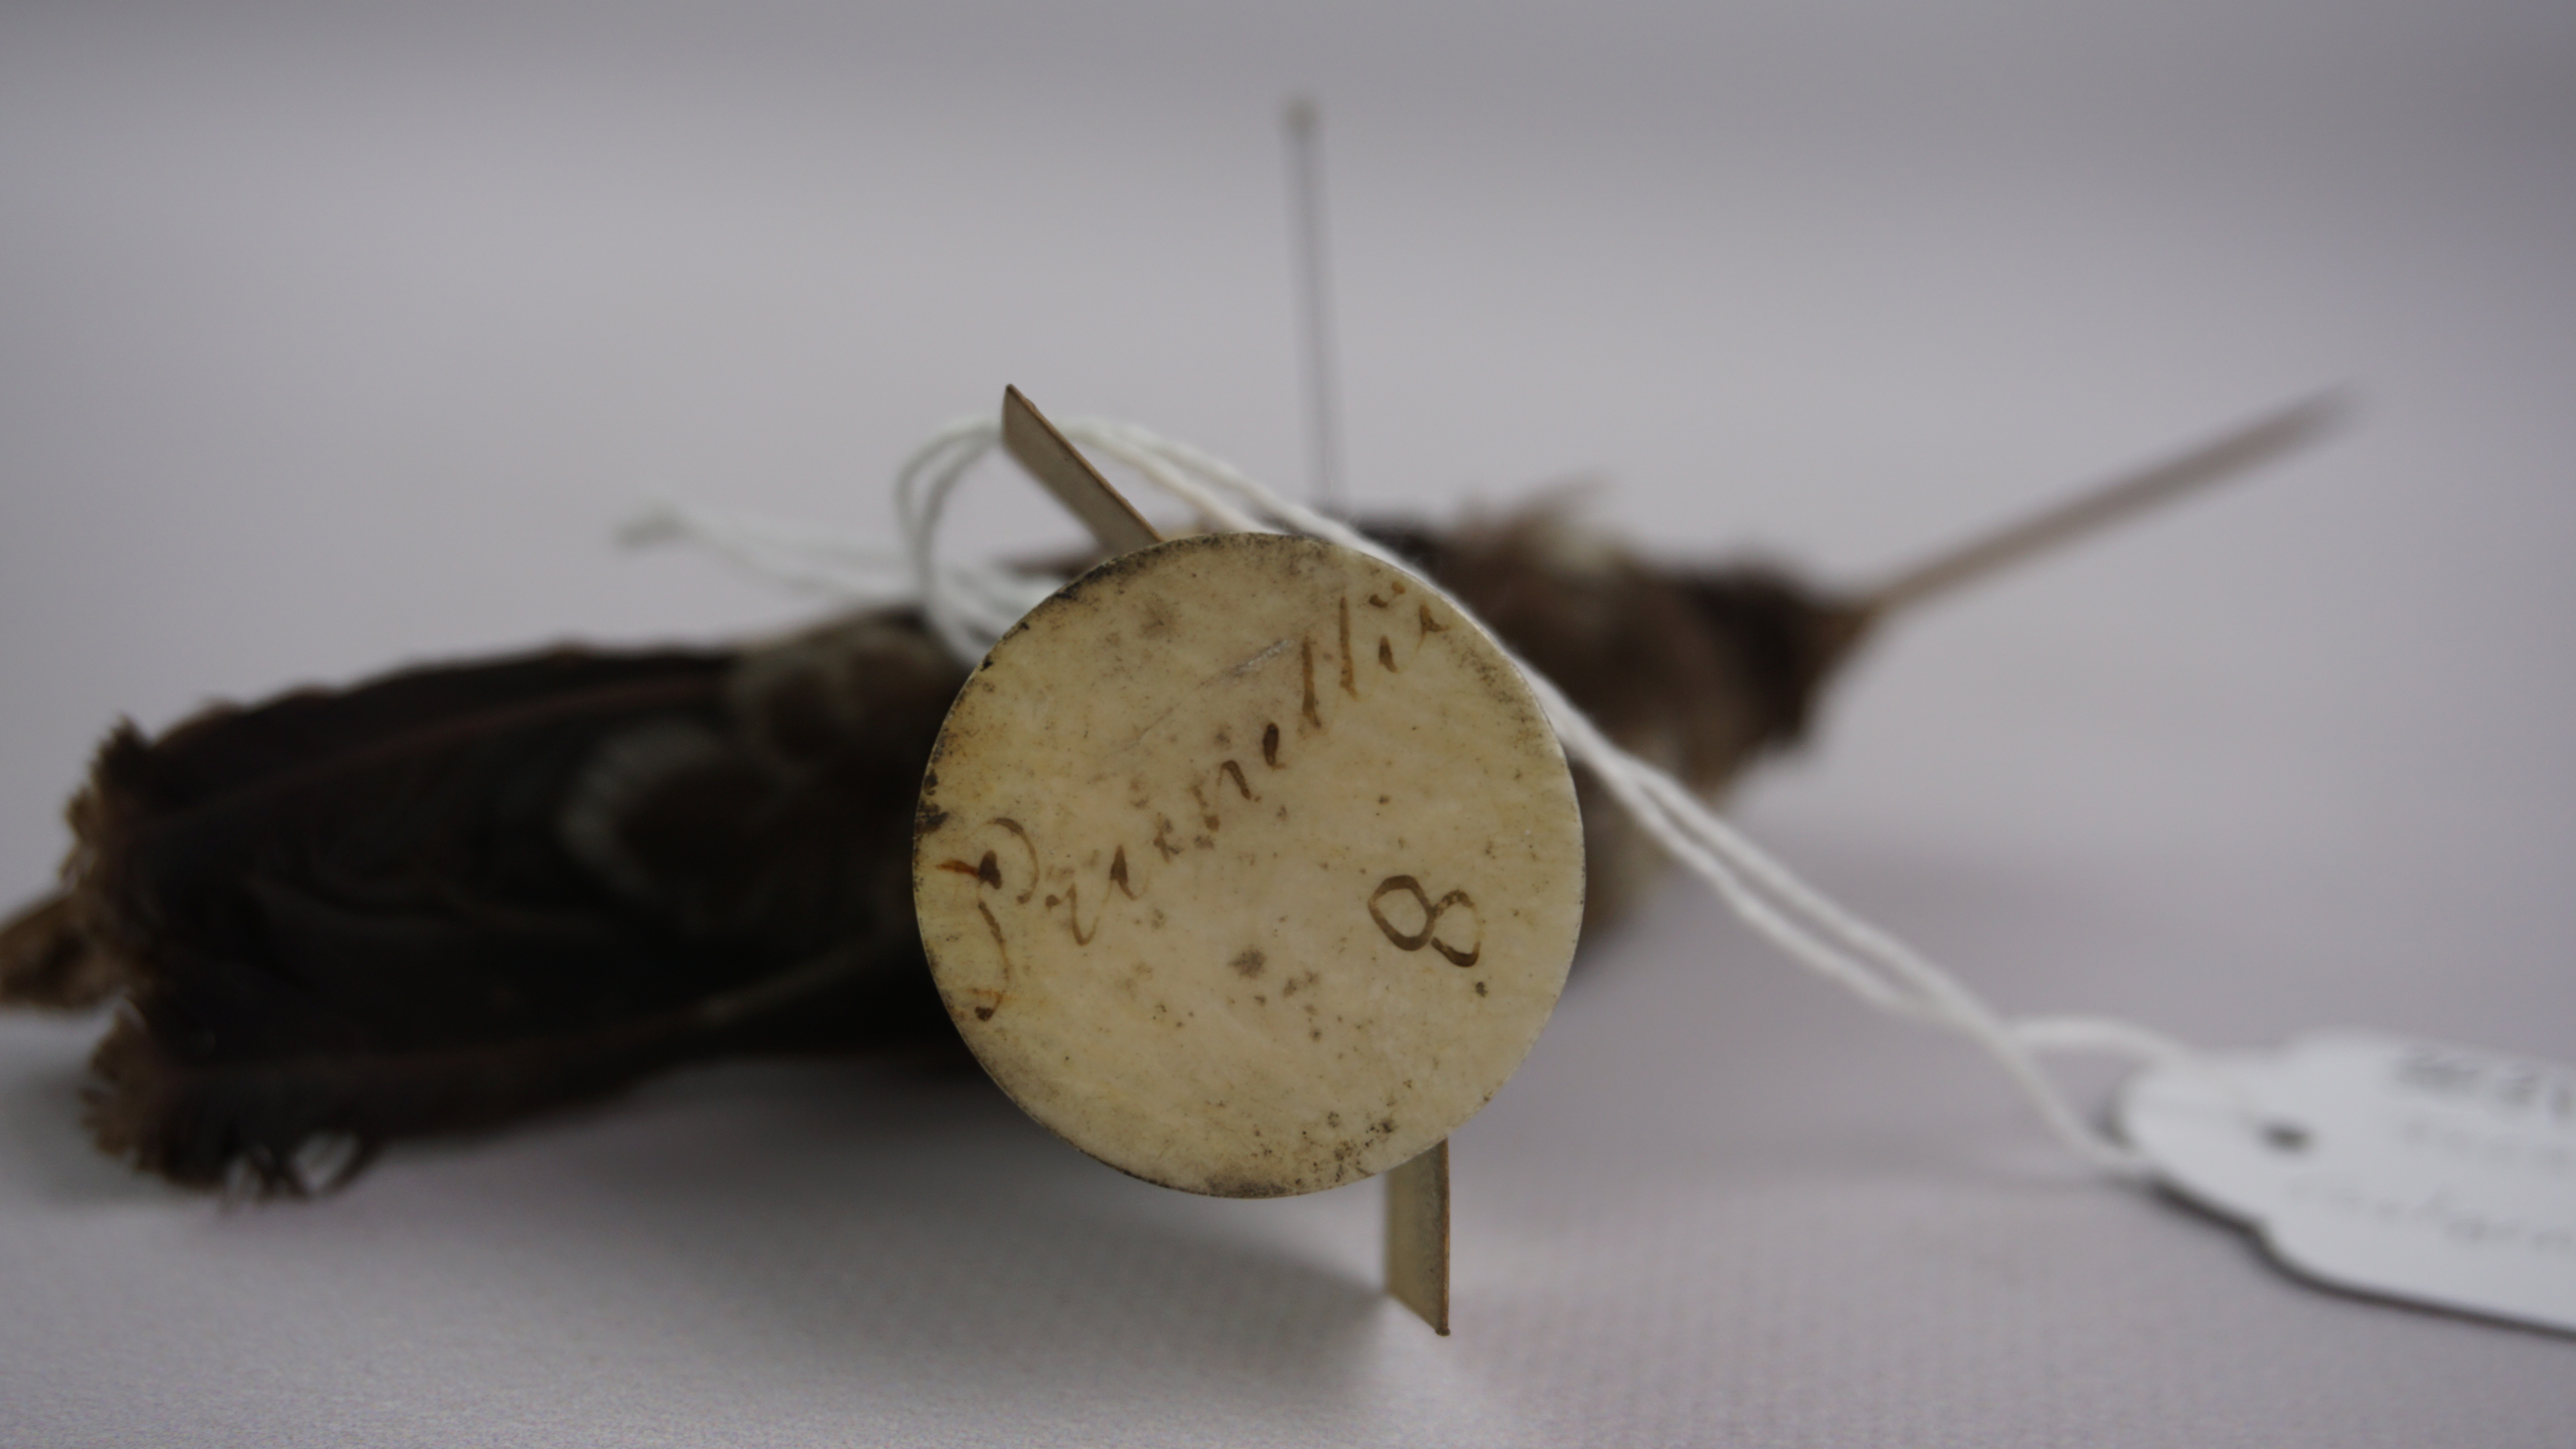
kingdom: Animalia
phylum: Chordata
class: Aves
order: Apodiformes
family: Trochilidae
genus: Coeligena
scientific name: Coeligena prunellei
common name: Black inca
